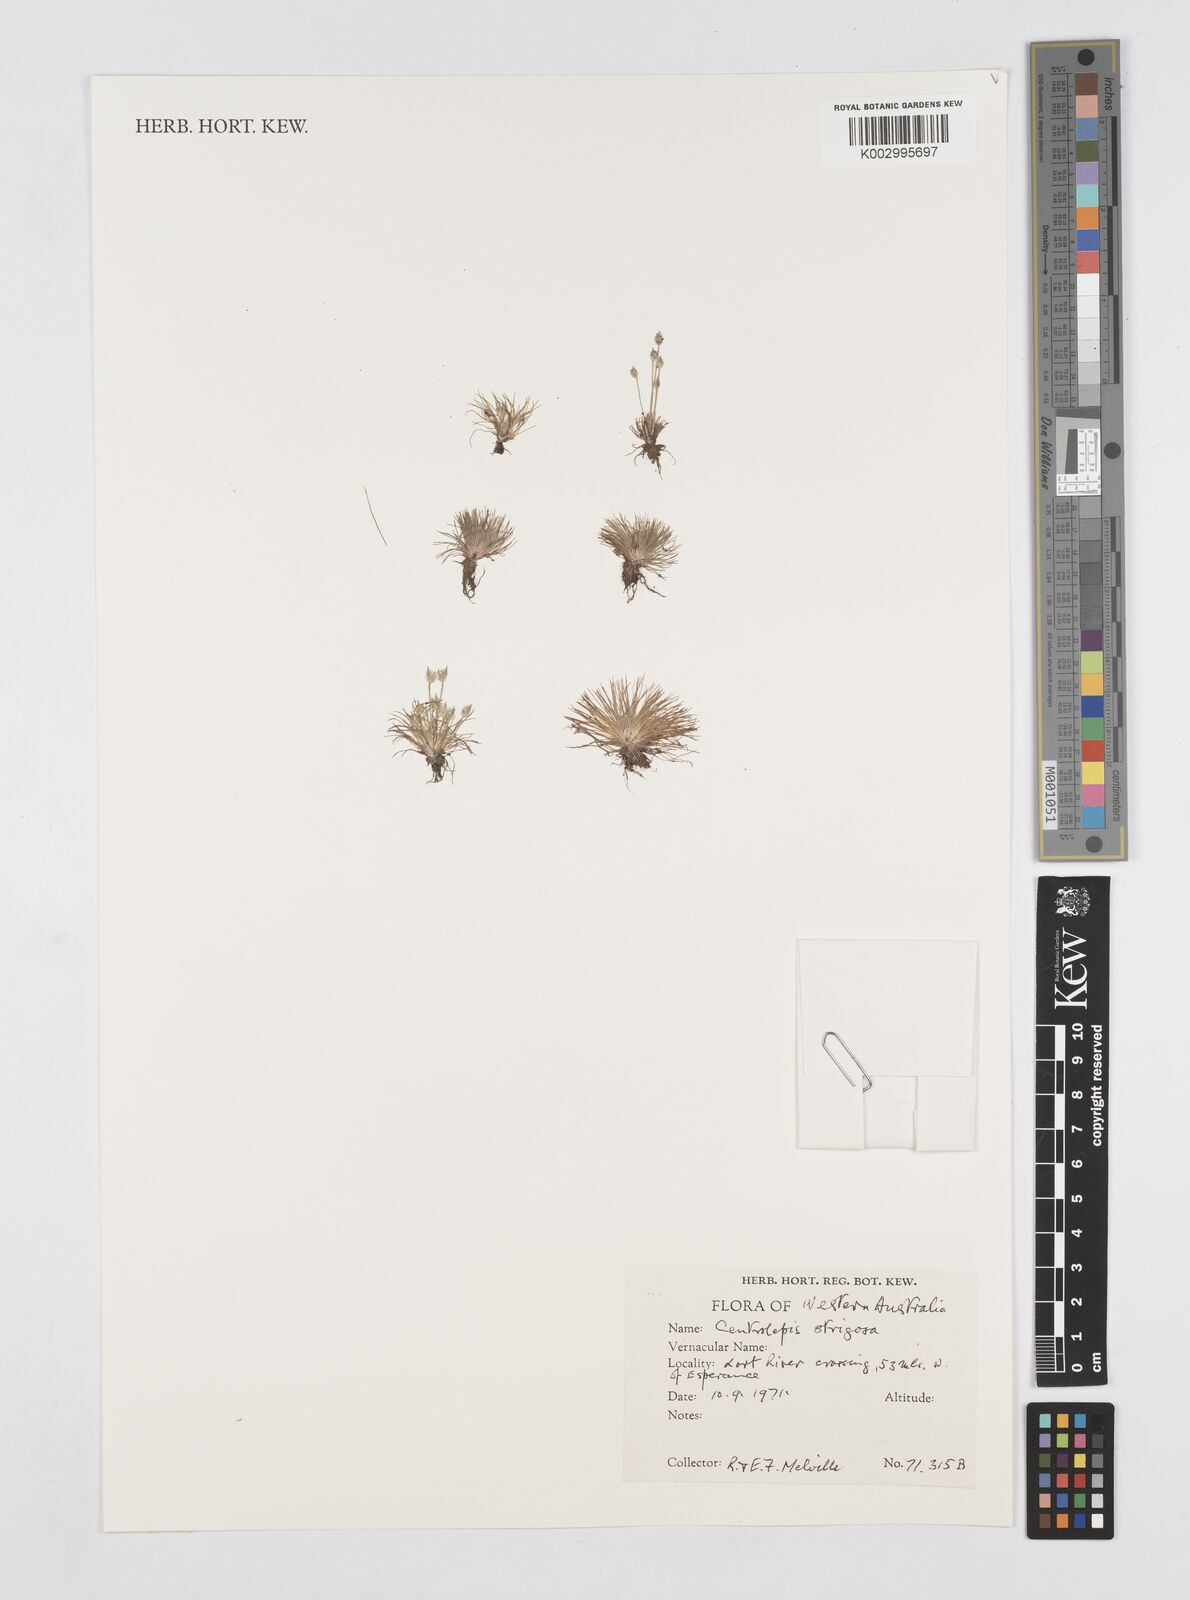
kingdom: Plantae
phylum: Tracheophyta
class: Liliopsida
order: Poales
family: Restionaceae
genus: Centrolepis
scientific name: Centrolepis strigosa
